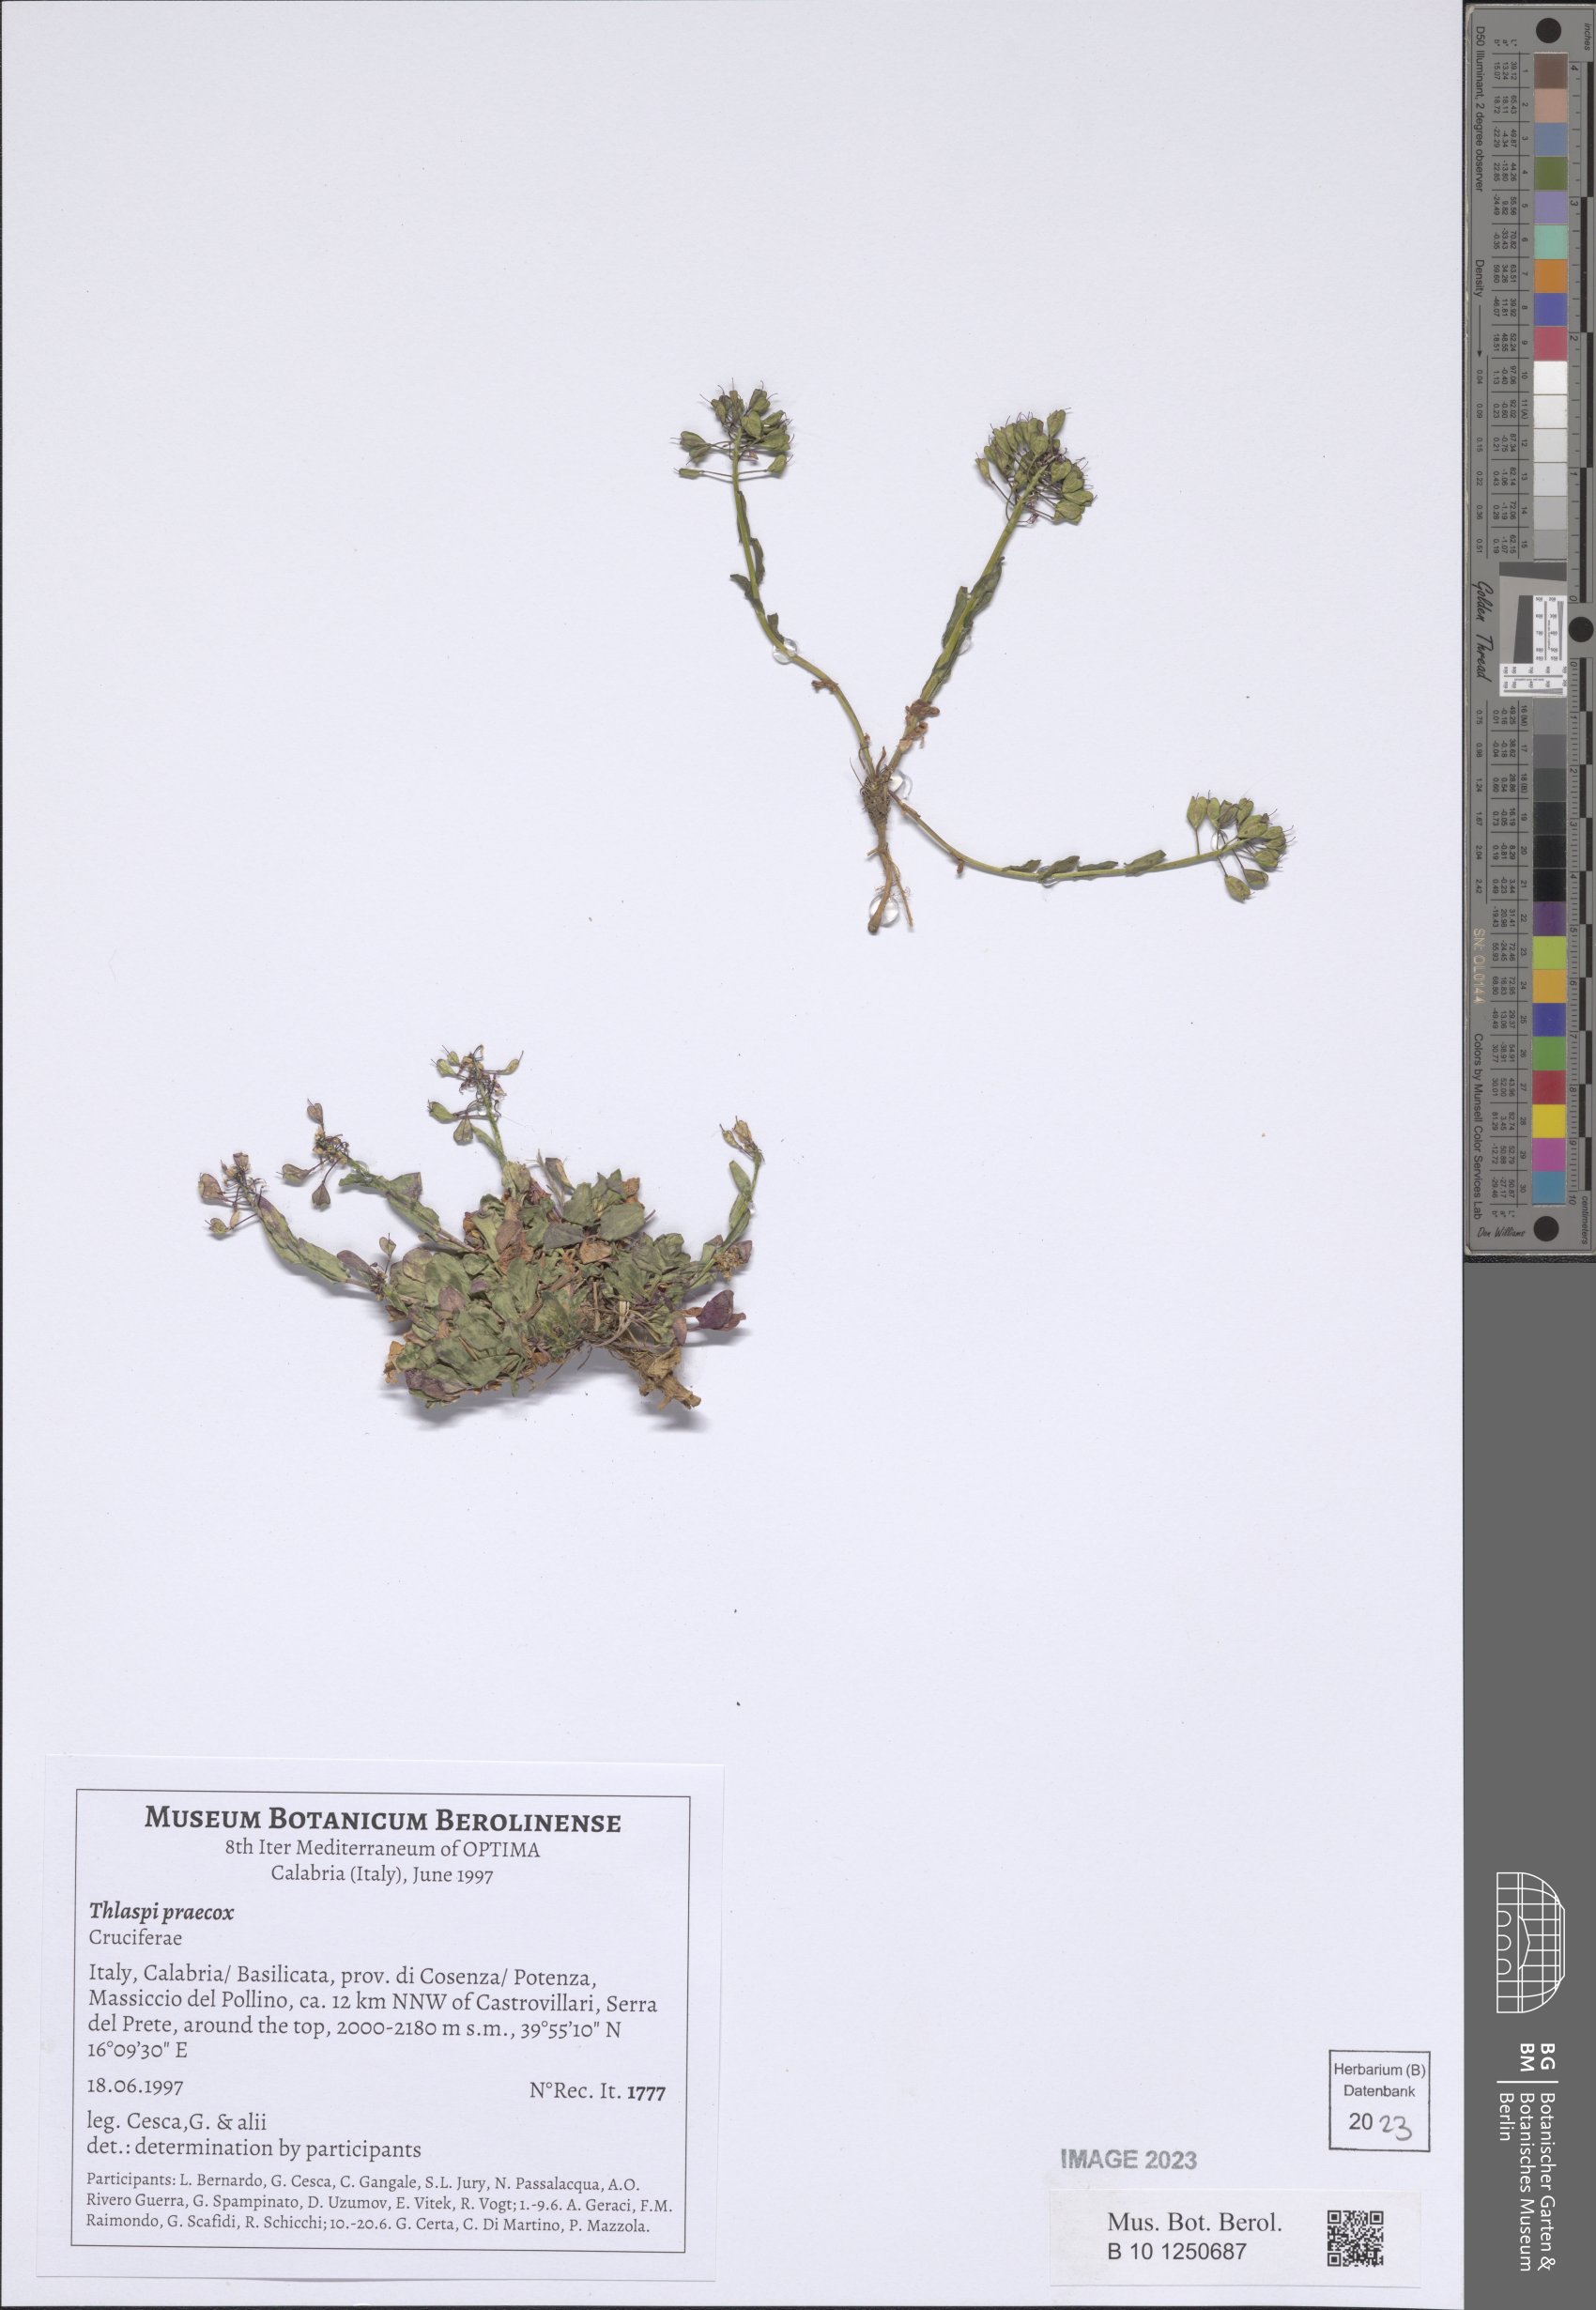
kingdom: Plantae
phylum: Tracheophyta
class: Magnoliopsida
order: Brassicales
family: Brassicaceae
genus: Noccaea
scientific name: Noccaea praecox
